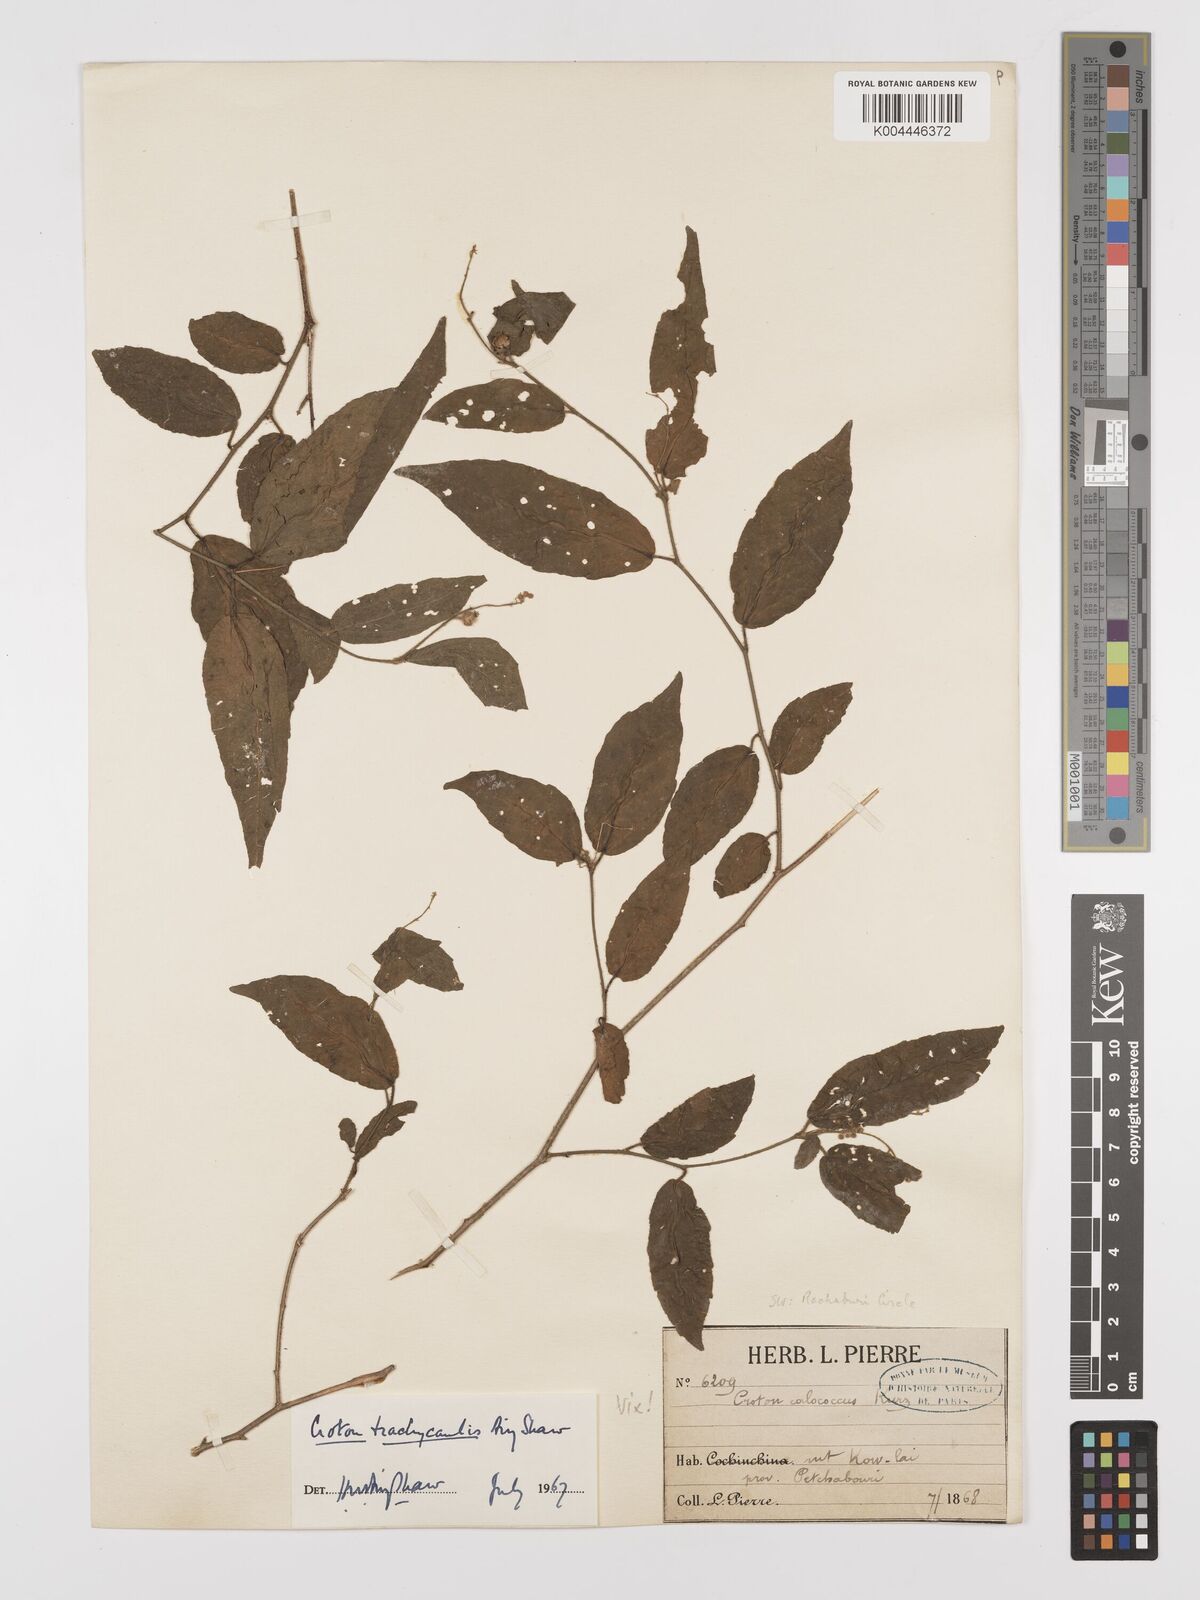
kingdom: Plantae
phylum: Tracheophyta
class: Magnoliopsida
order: Malpighiales
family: Euphorbiaceae
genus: Croton
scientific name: Croton lachnocarpus
